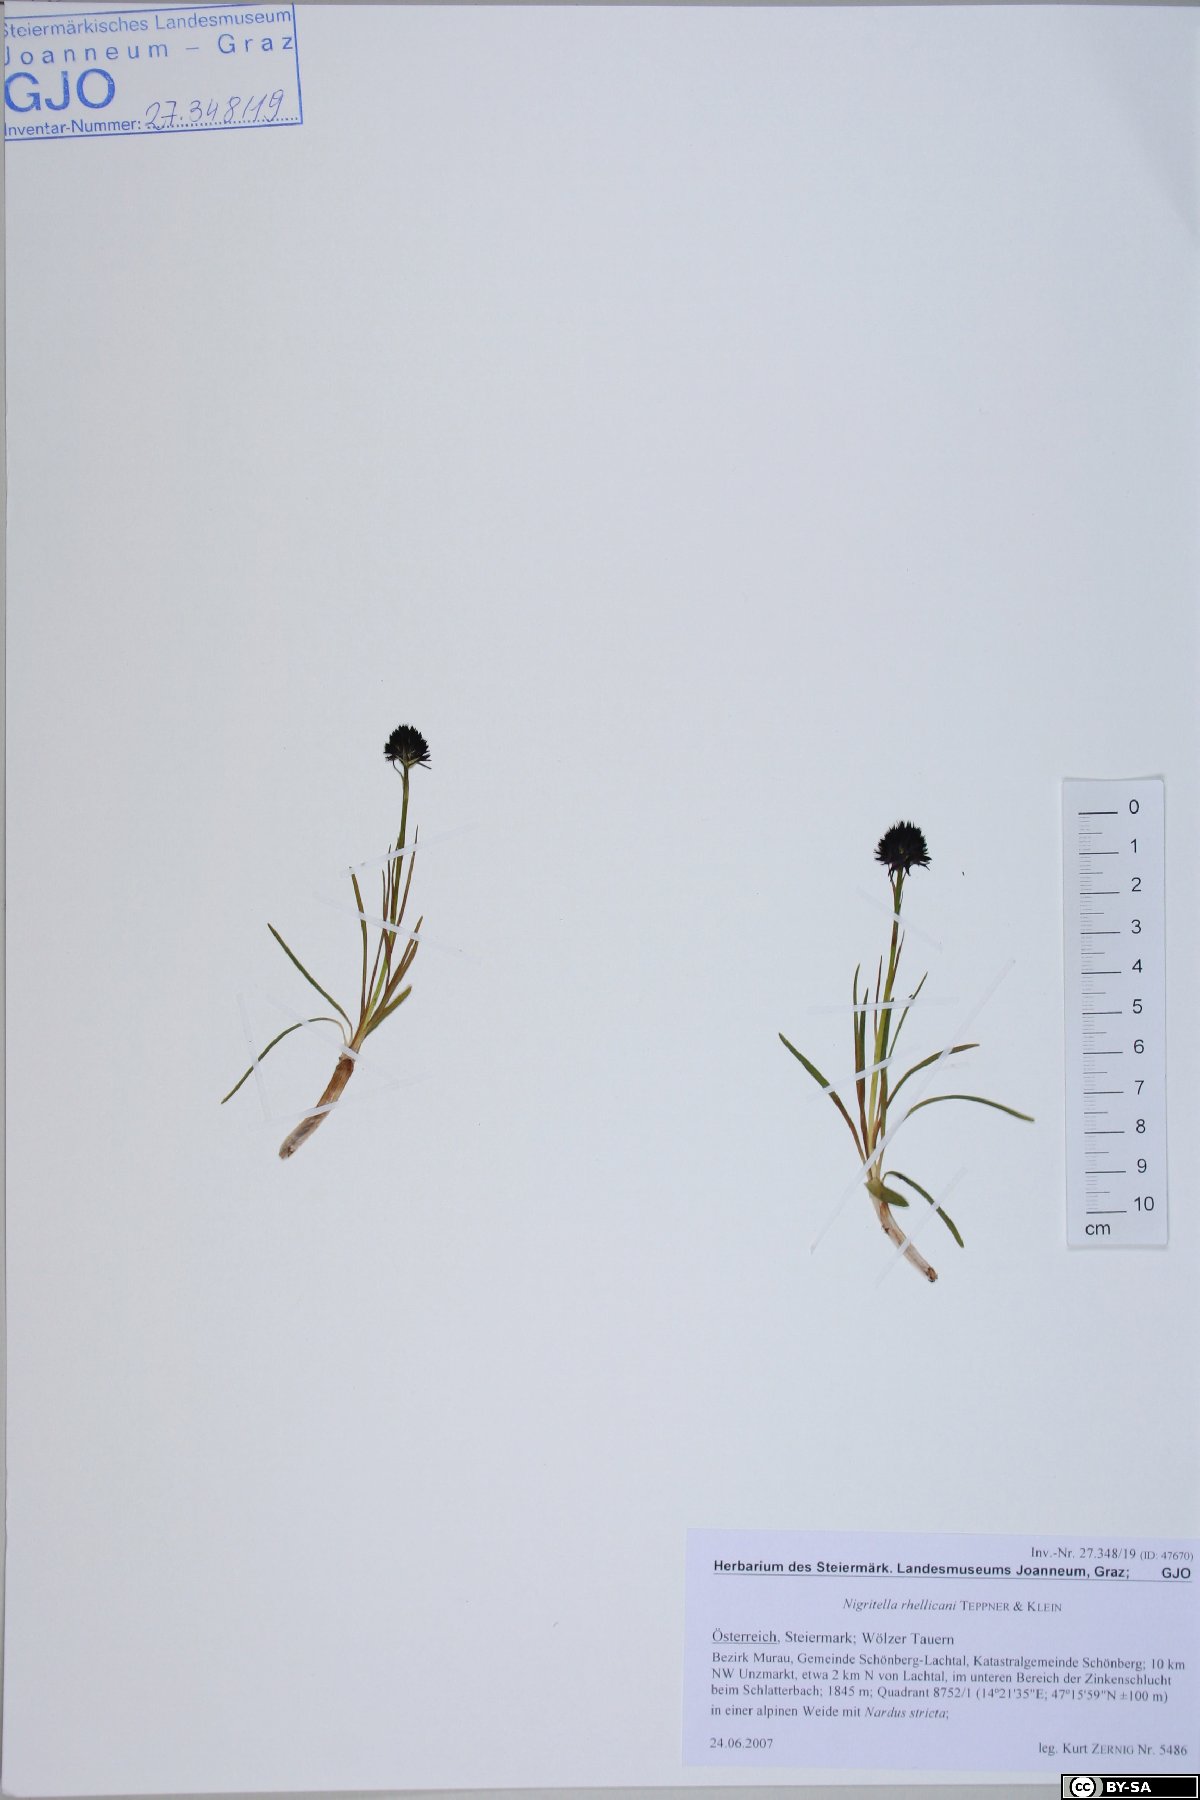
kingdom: Plantae
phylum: Tracheophyta
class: Liliopsida
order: Asparagales
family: Orchidaceae
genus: Gymnadenia
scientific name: Gymnadenia rhellicani
